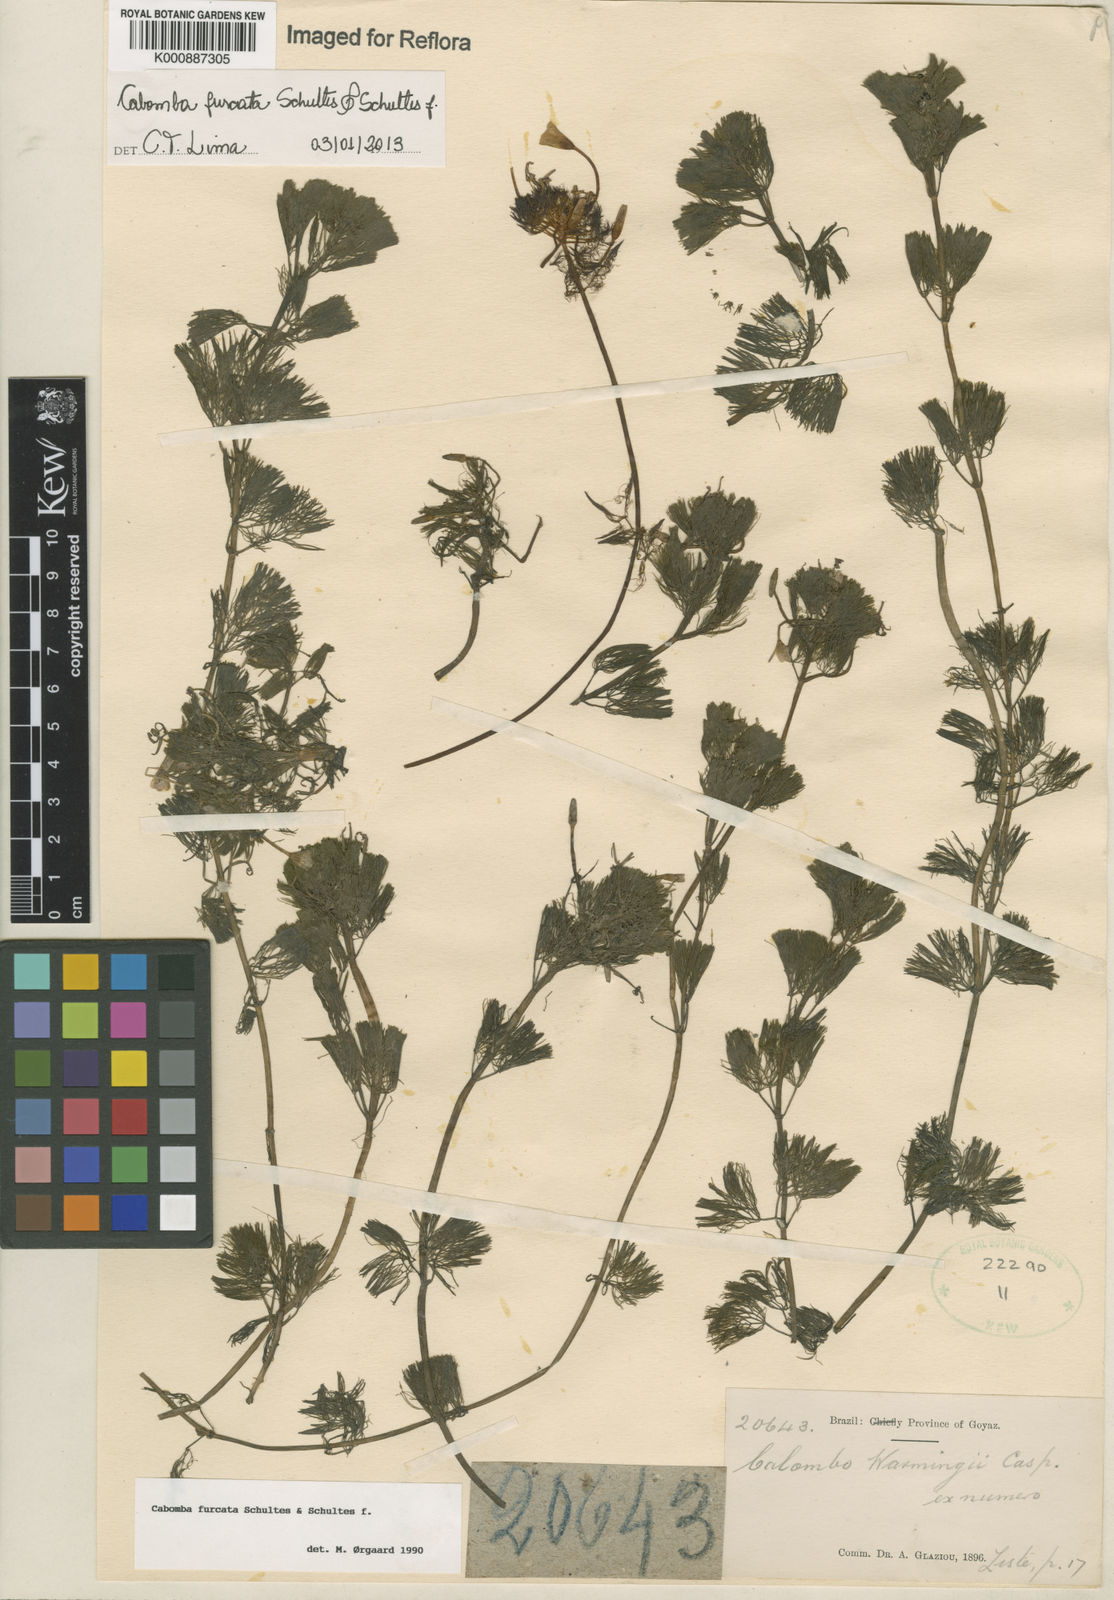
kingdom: Plantae
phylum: Tracheophyta
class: Magnoliopsida
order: Nymphaeales
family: Cabombaceae
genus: Cabomba
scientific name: Cabomba furcata
